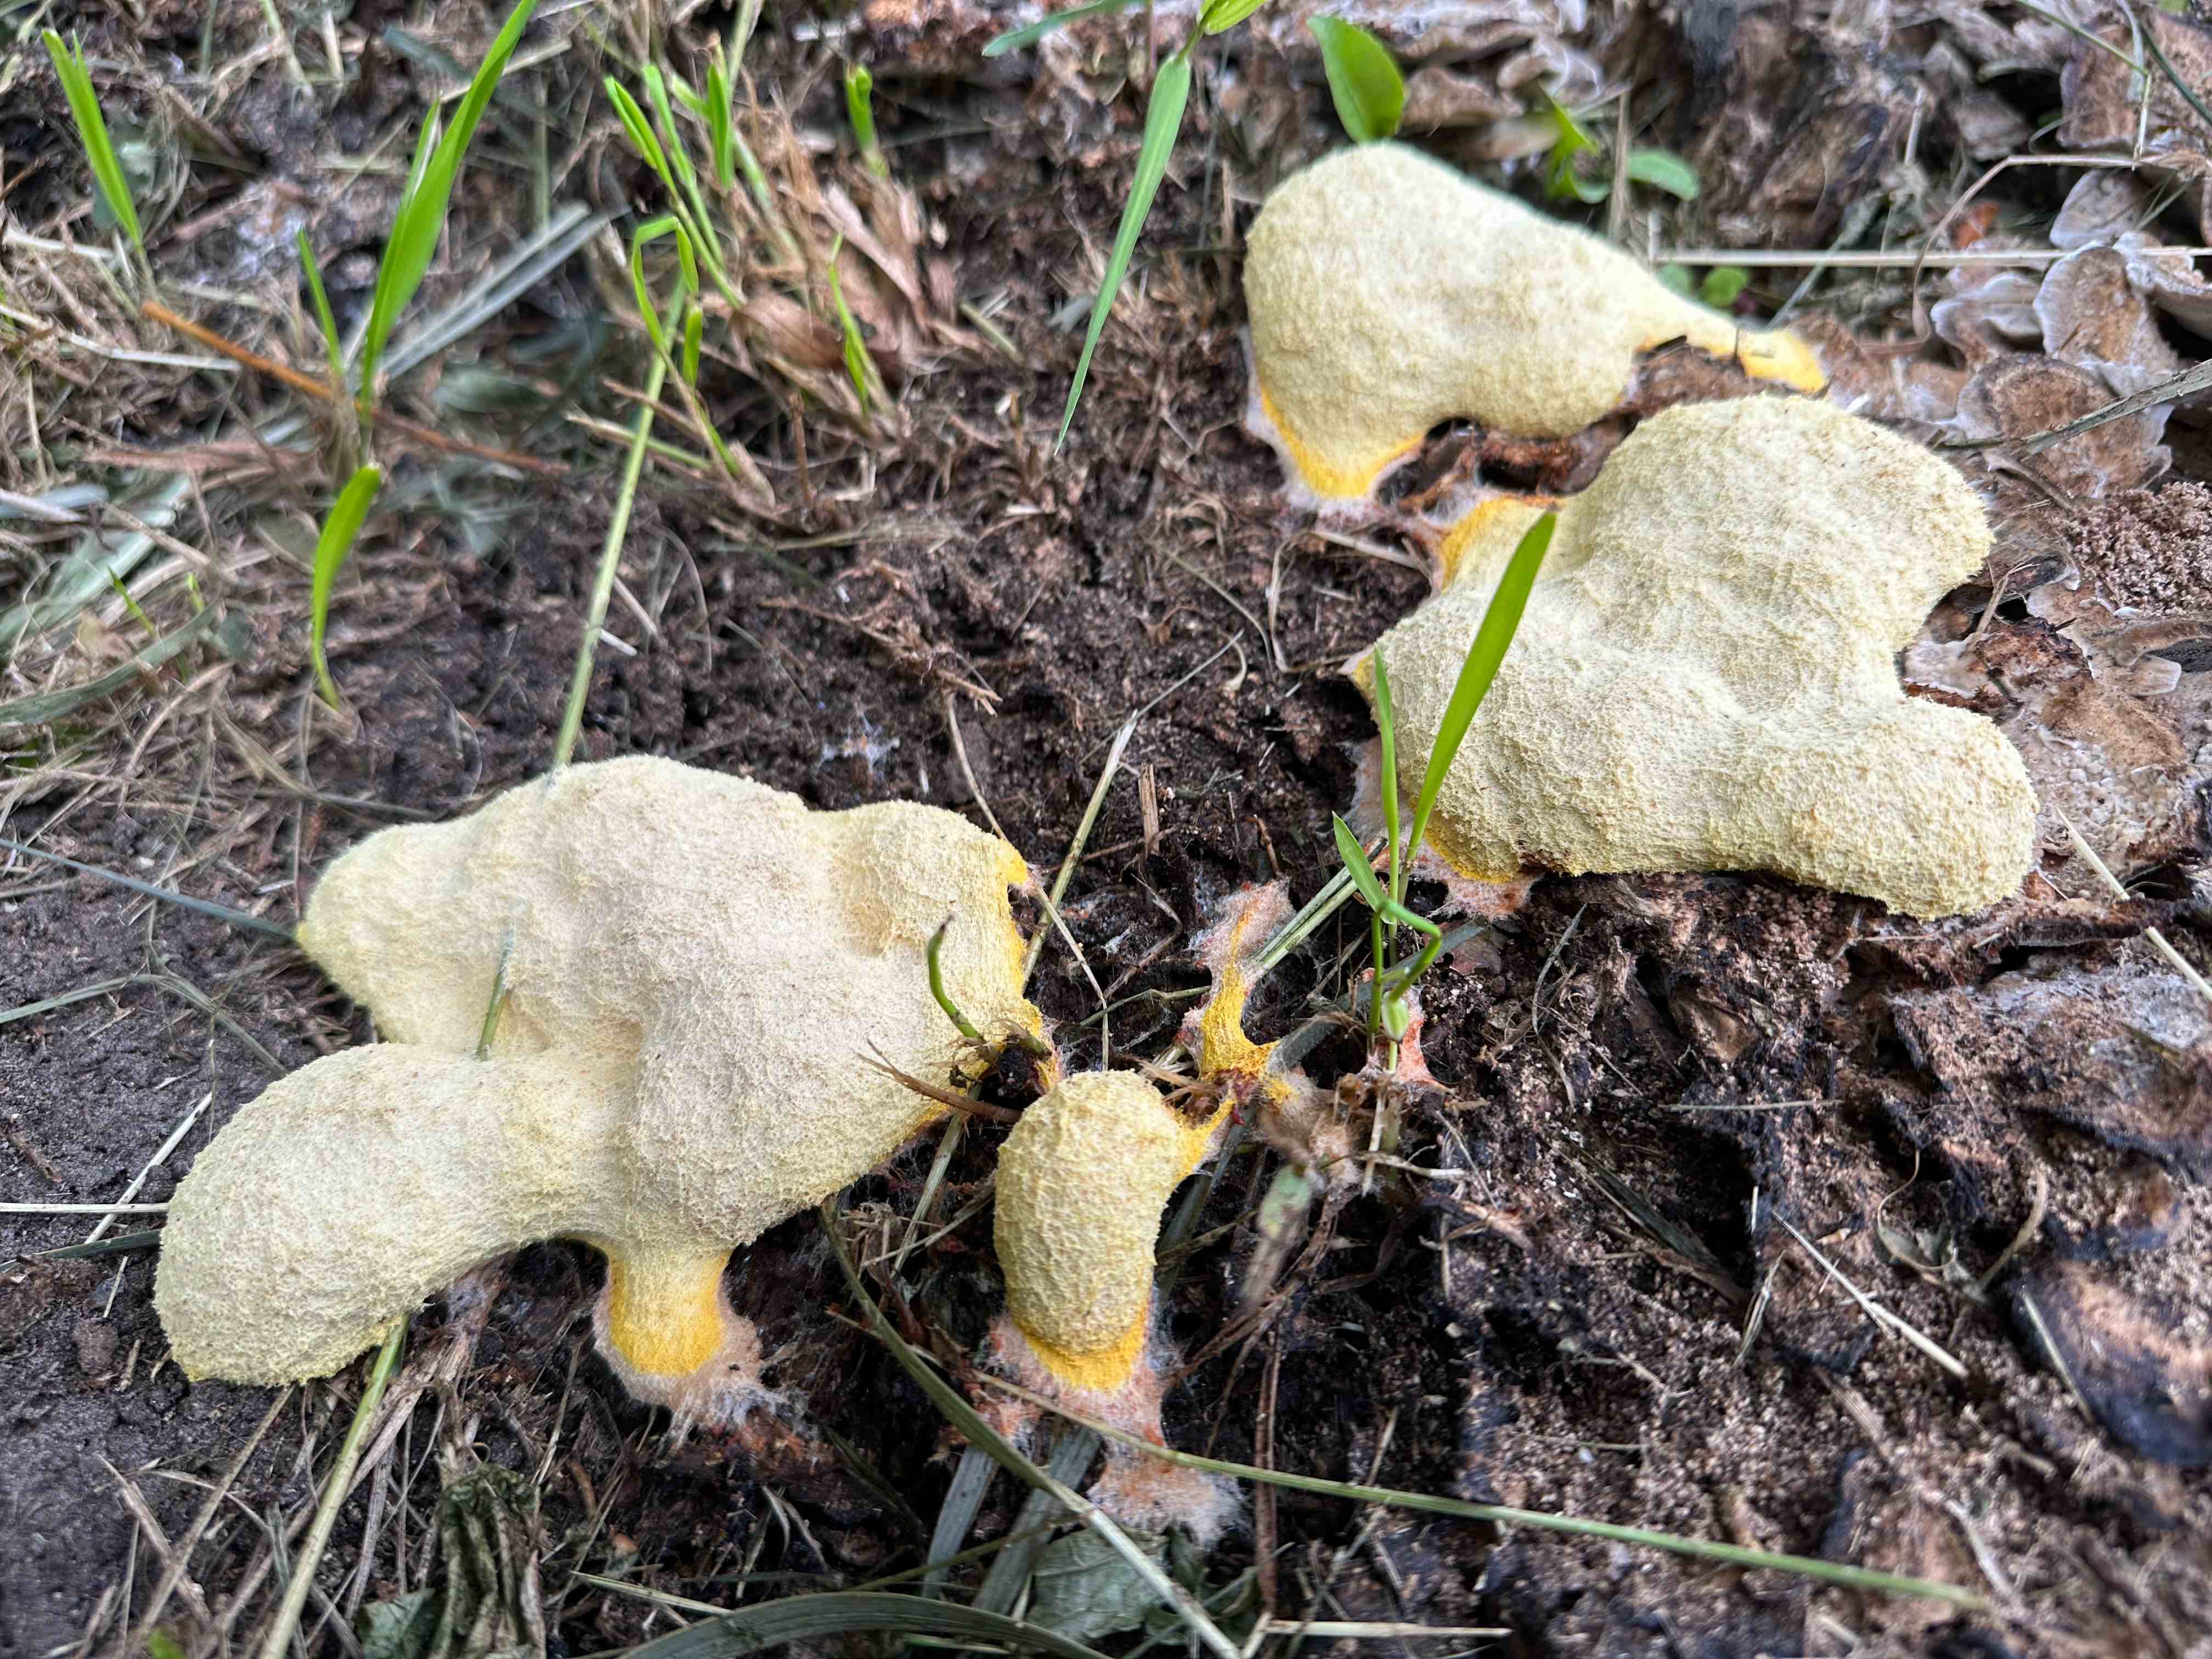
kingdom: Protozoa
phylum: Mycetozoa
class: Myxomycetes
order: Physarales
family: Physaraceae
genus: Fuligo
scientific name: Fuligo septica
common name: gul troldsmør
